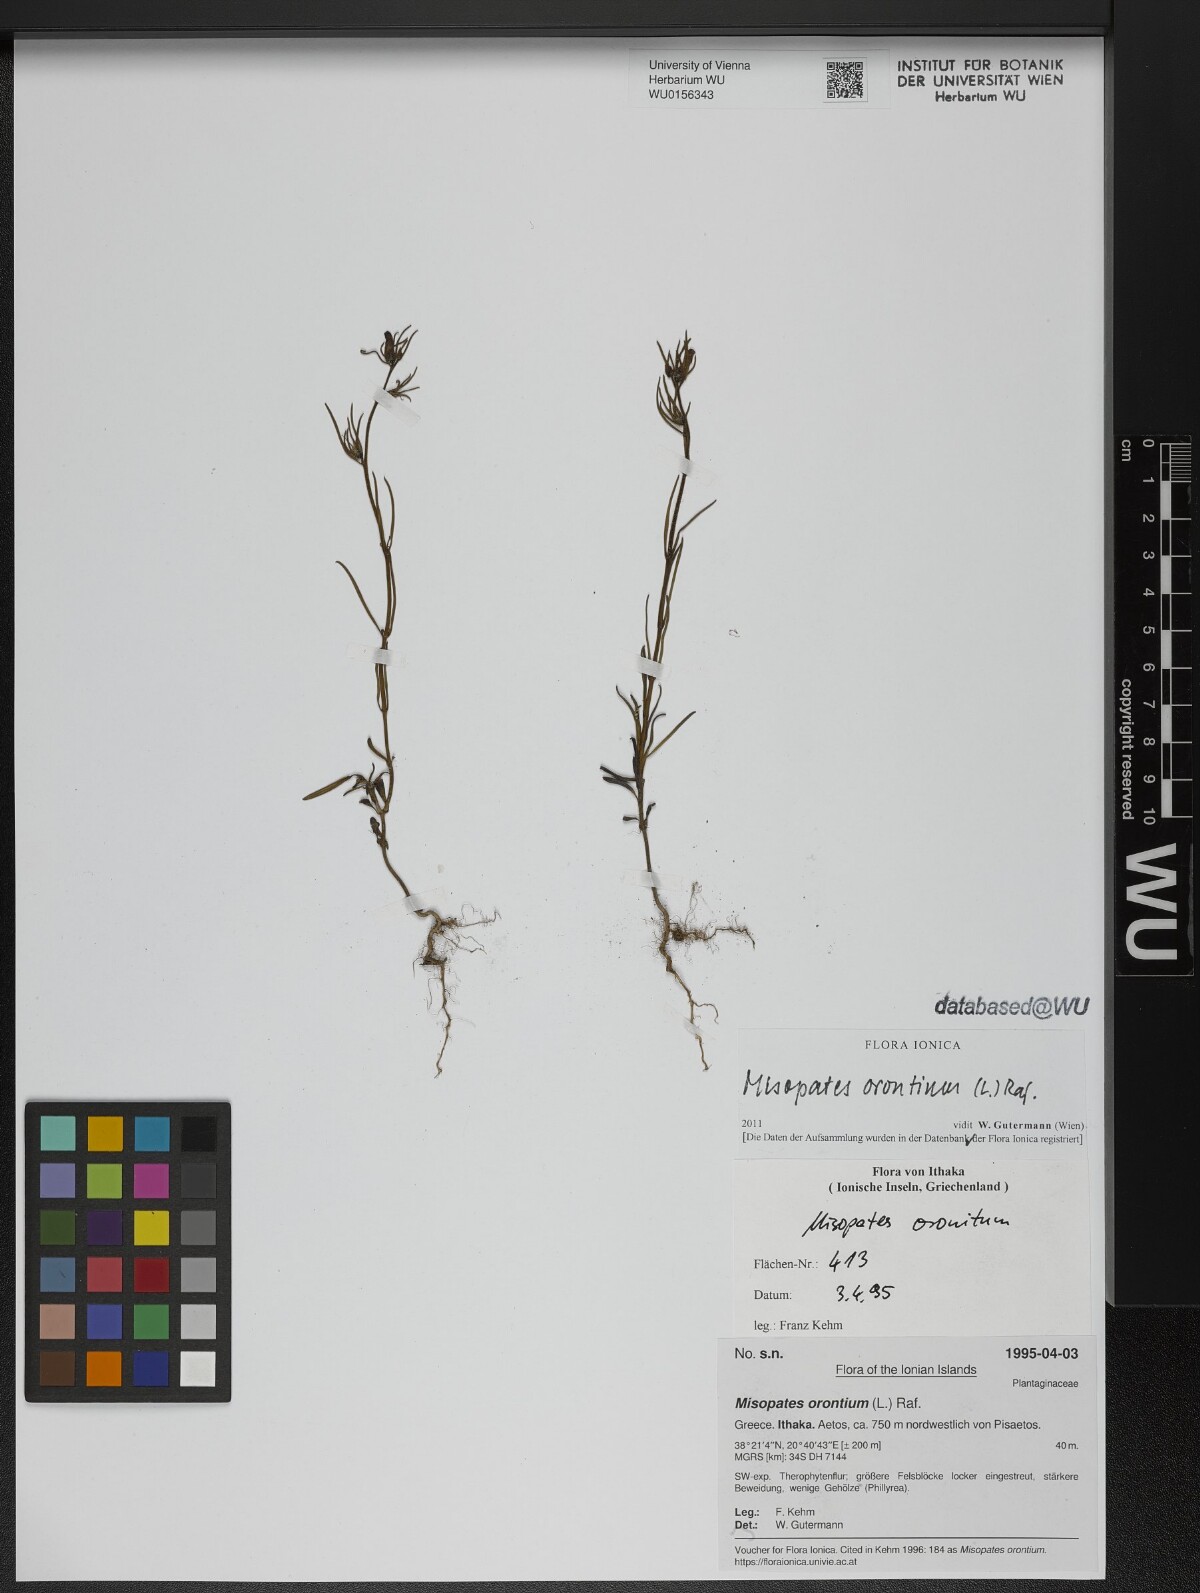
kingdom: Plantae
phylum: Tracheophyta
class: Magnoliopsida
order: Lamiales
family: Plantaginaceae
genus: Misopates
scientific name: Misopates orontium
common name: Weasel's-snout
